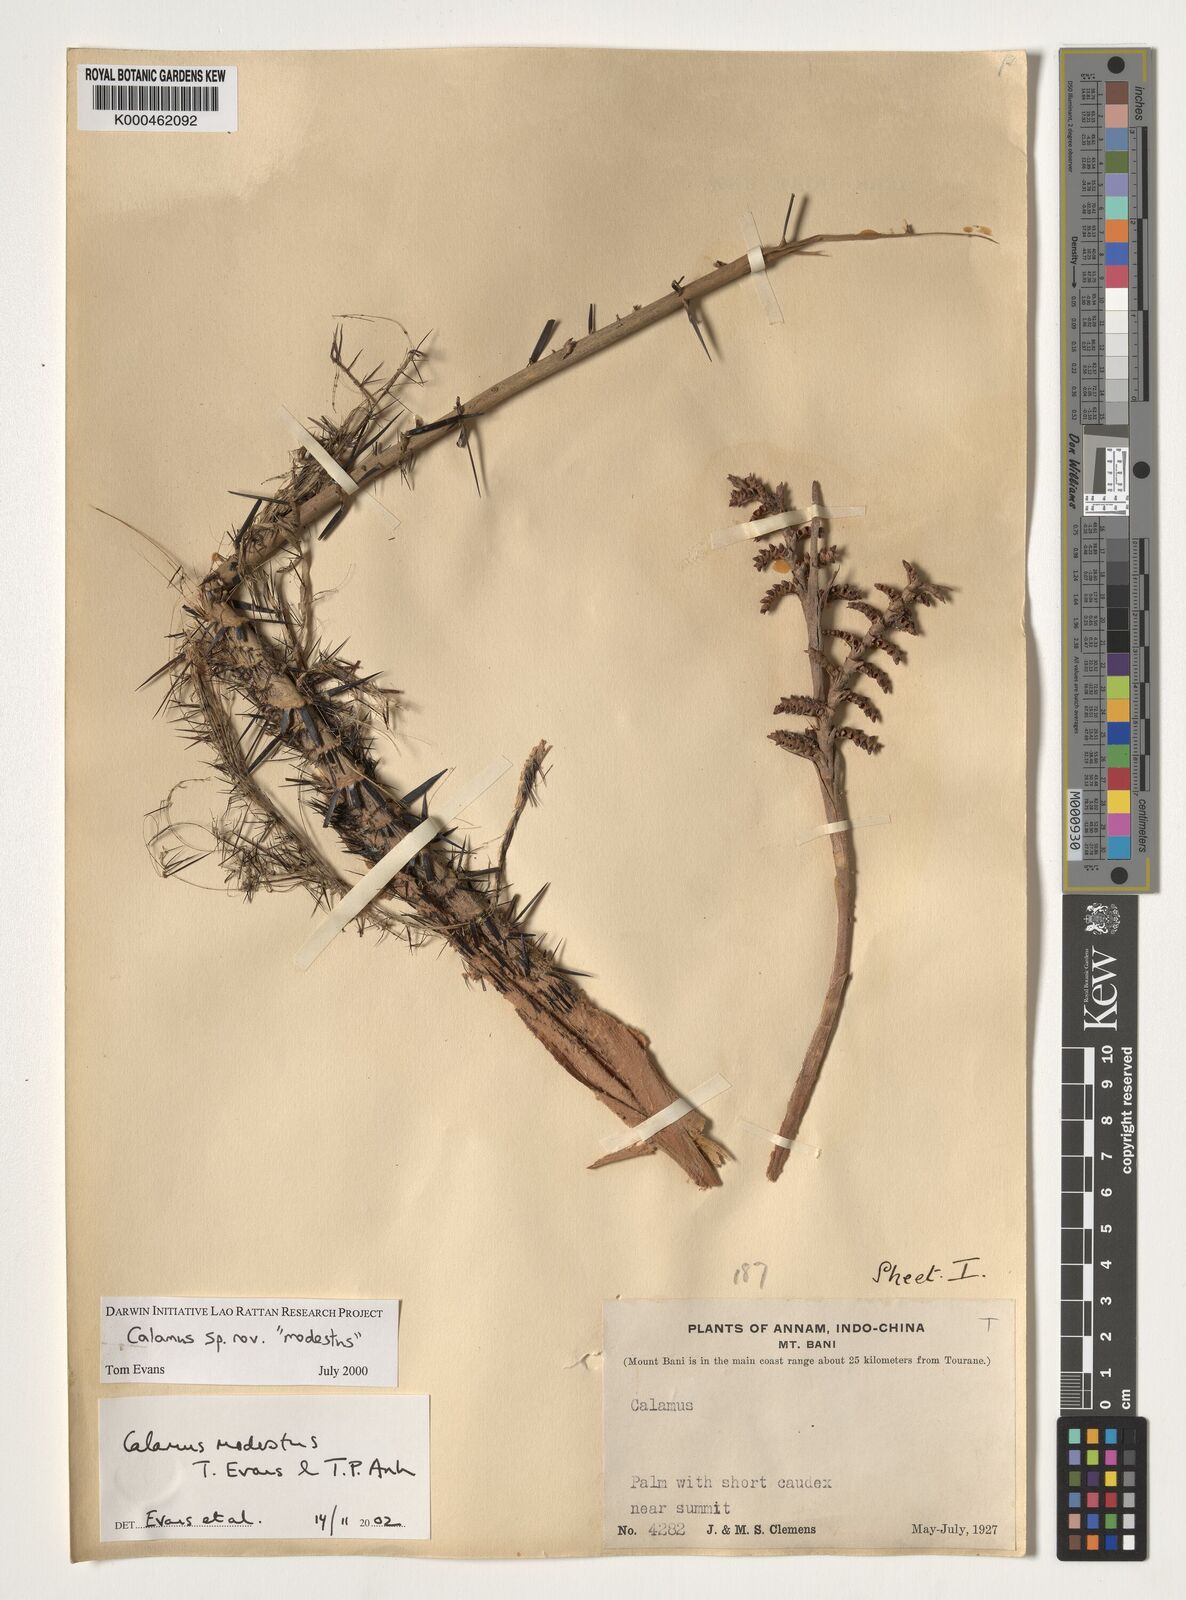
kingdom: Plantae
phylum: Tracheophyta
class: Liliopsida
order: Arecales
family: Arecaceae
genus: Calamus
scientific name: Calamus modestus
